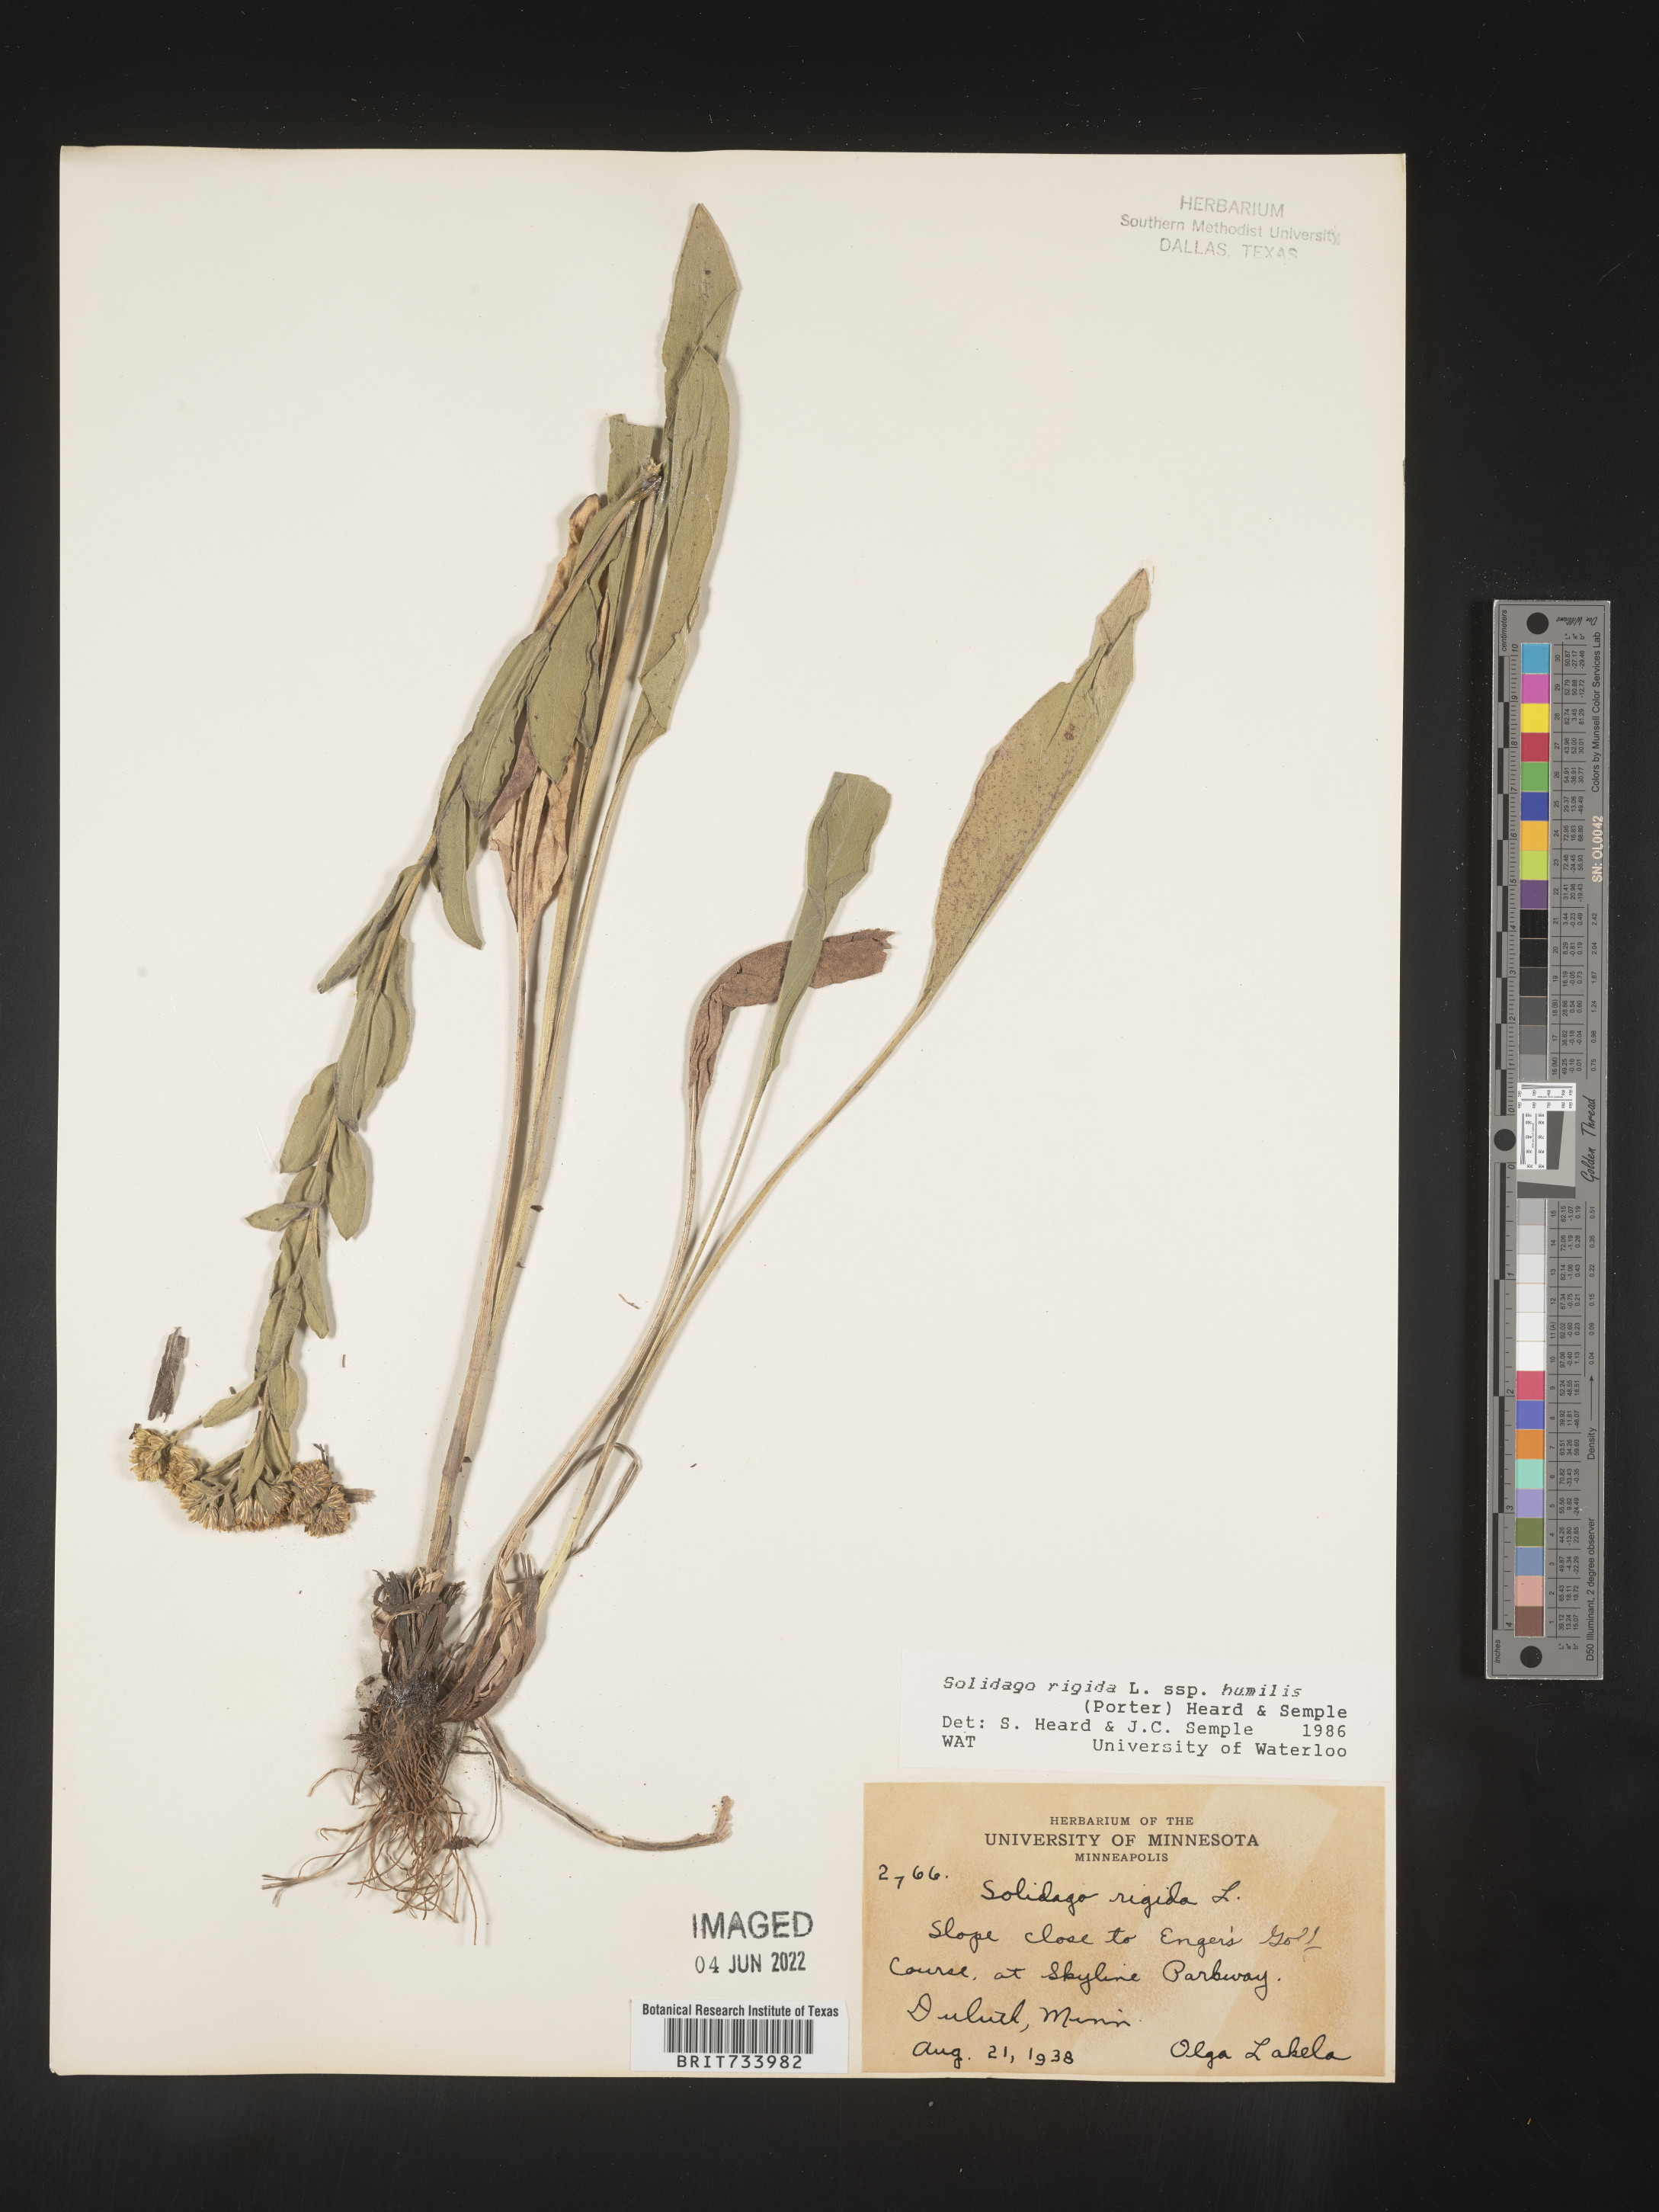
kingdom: Plantae
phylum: Tracheophyta
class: Magnoliopsida
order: Asterales
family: Asteraceae
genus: Solidago
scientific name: Solidago rigida
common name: Rigid goldenrod
